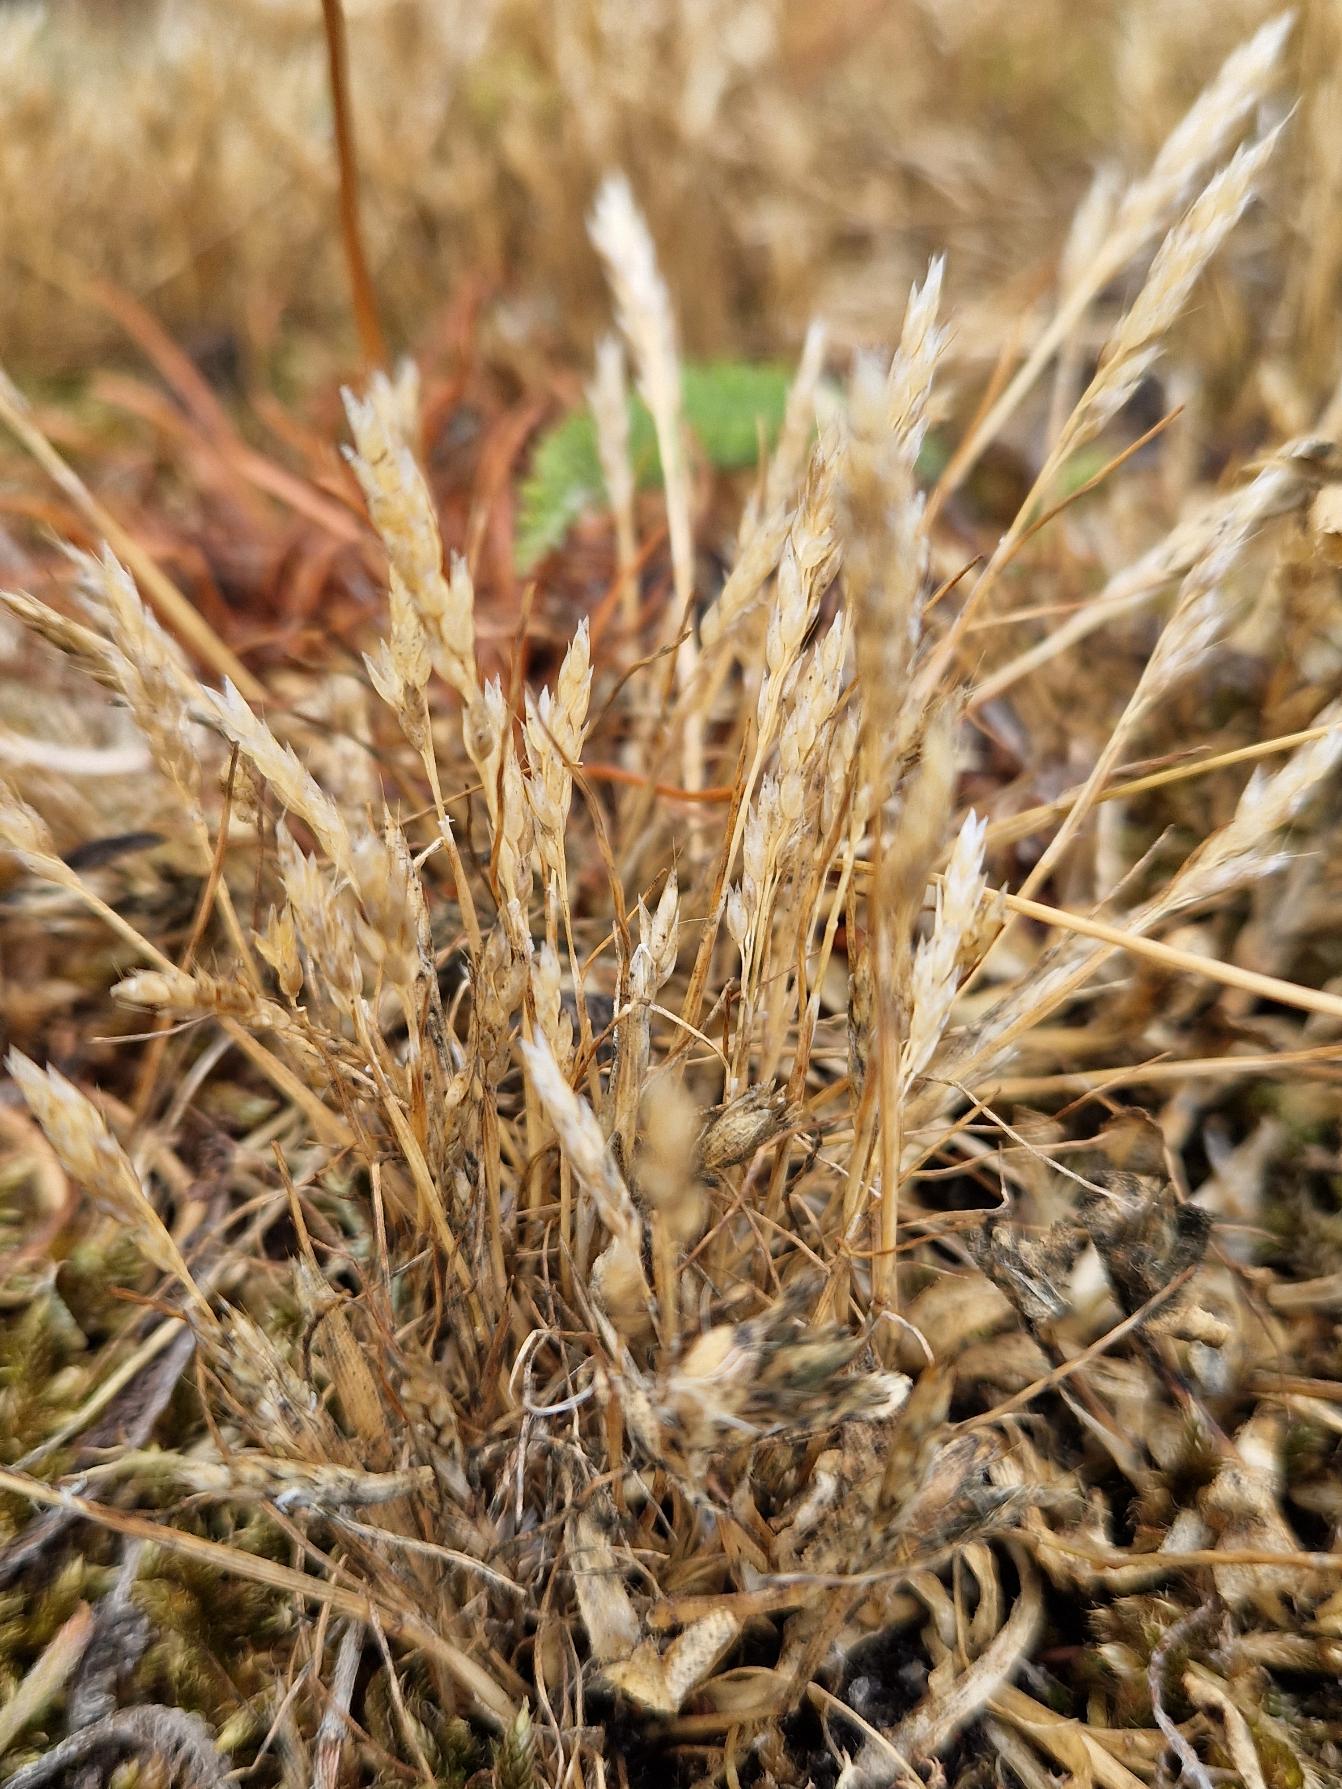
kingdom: Plantae
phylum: Tracheophyta
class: Liliopsida
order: Poales
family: Poaceae
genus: Aira
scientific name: Aira praecox
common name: Tidlig dværgbunke
